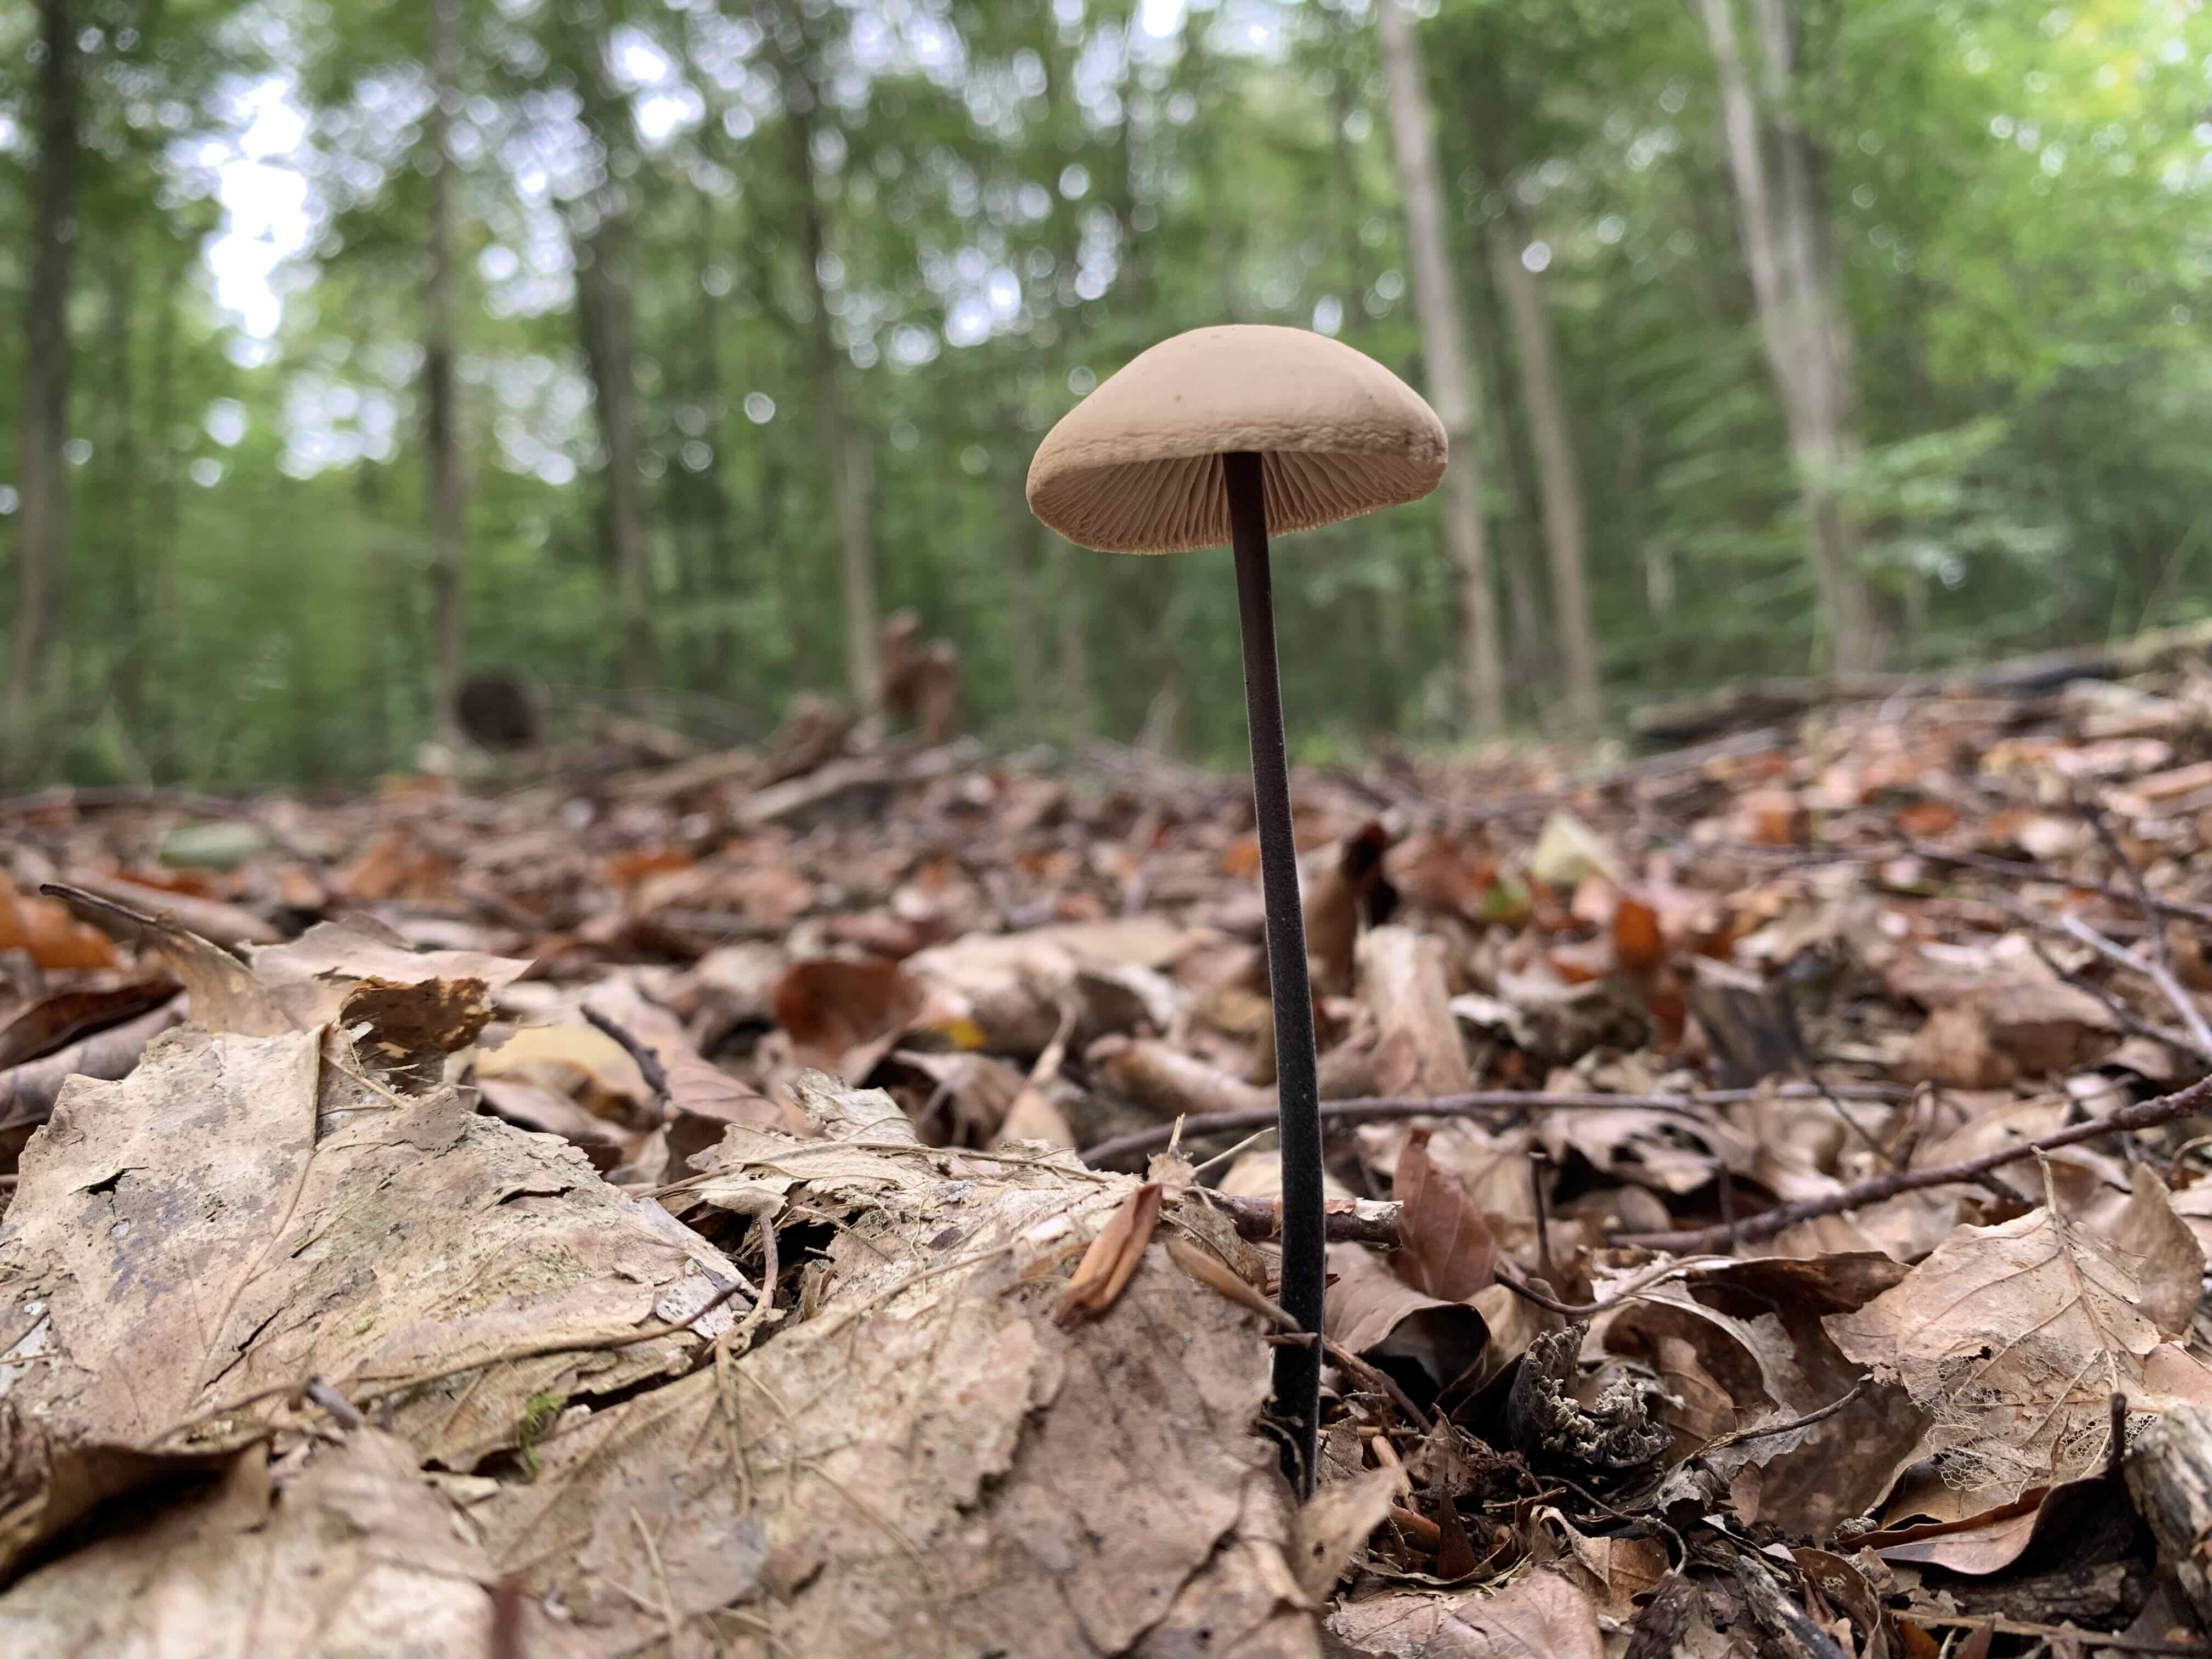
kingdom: Fungi
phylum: Basidiomycota
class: Agaricomycetes
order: Agaricales
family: Omphalotaceae
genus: Mycetinis
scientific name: Mycetinis alliaceus
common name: stor løghat
